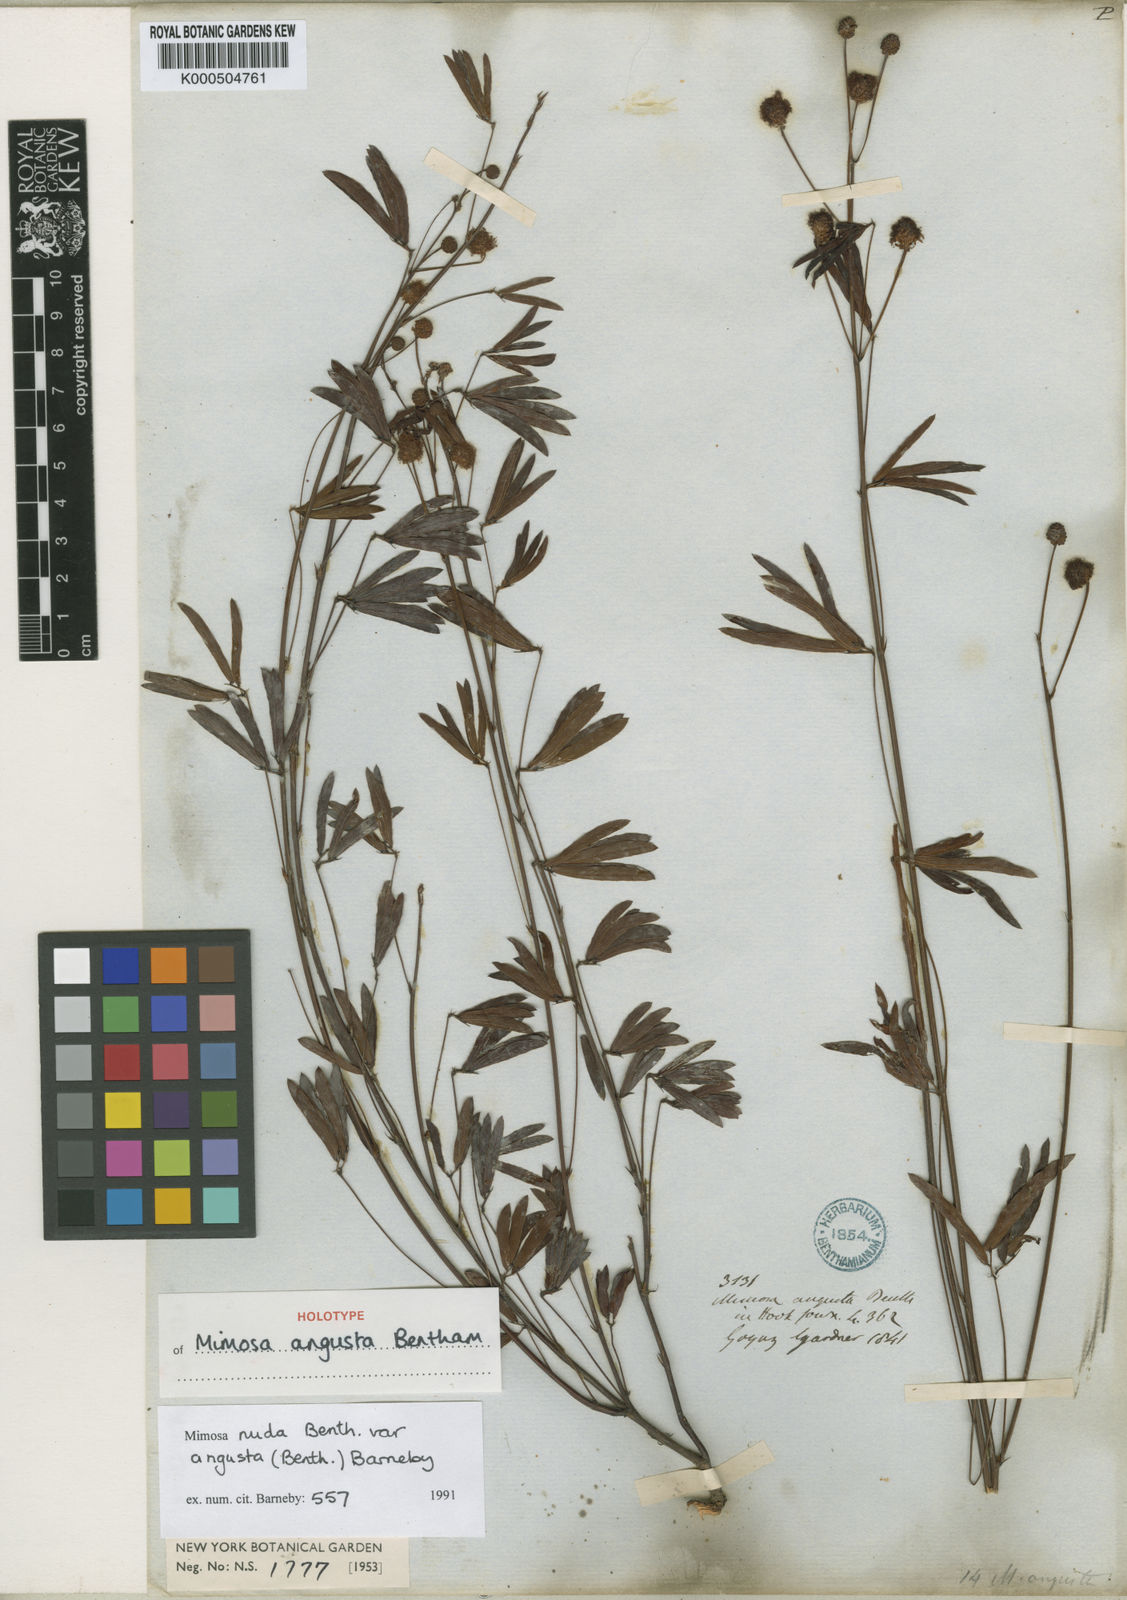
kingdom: Plantae
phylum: Tracheophyta
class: Magnoliopsida
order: Fabales
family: Fabaceae
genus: Mimosa
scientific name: Mimosa debilis
